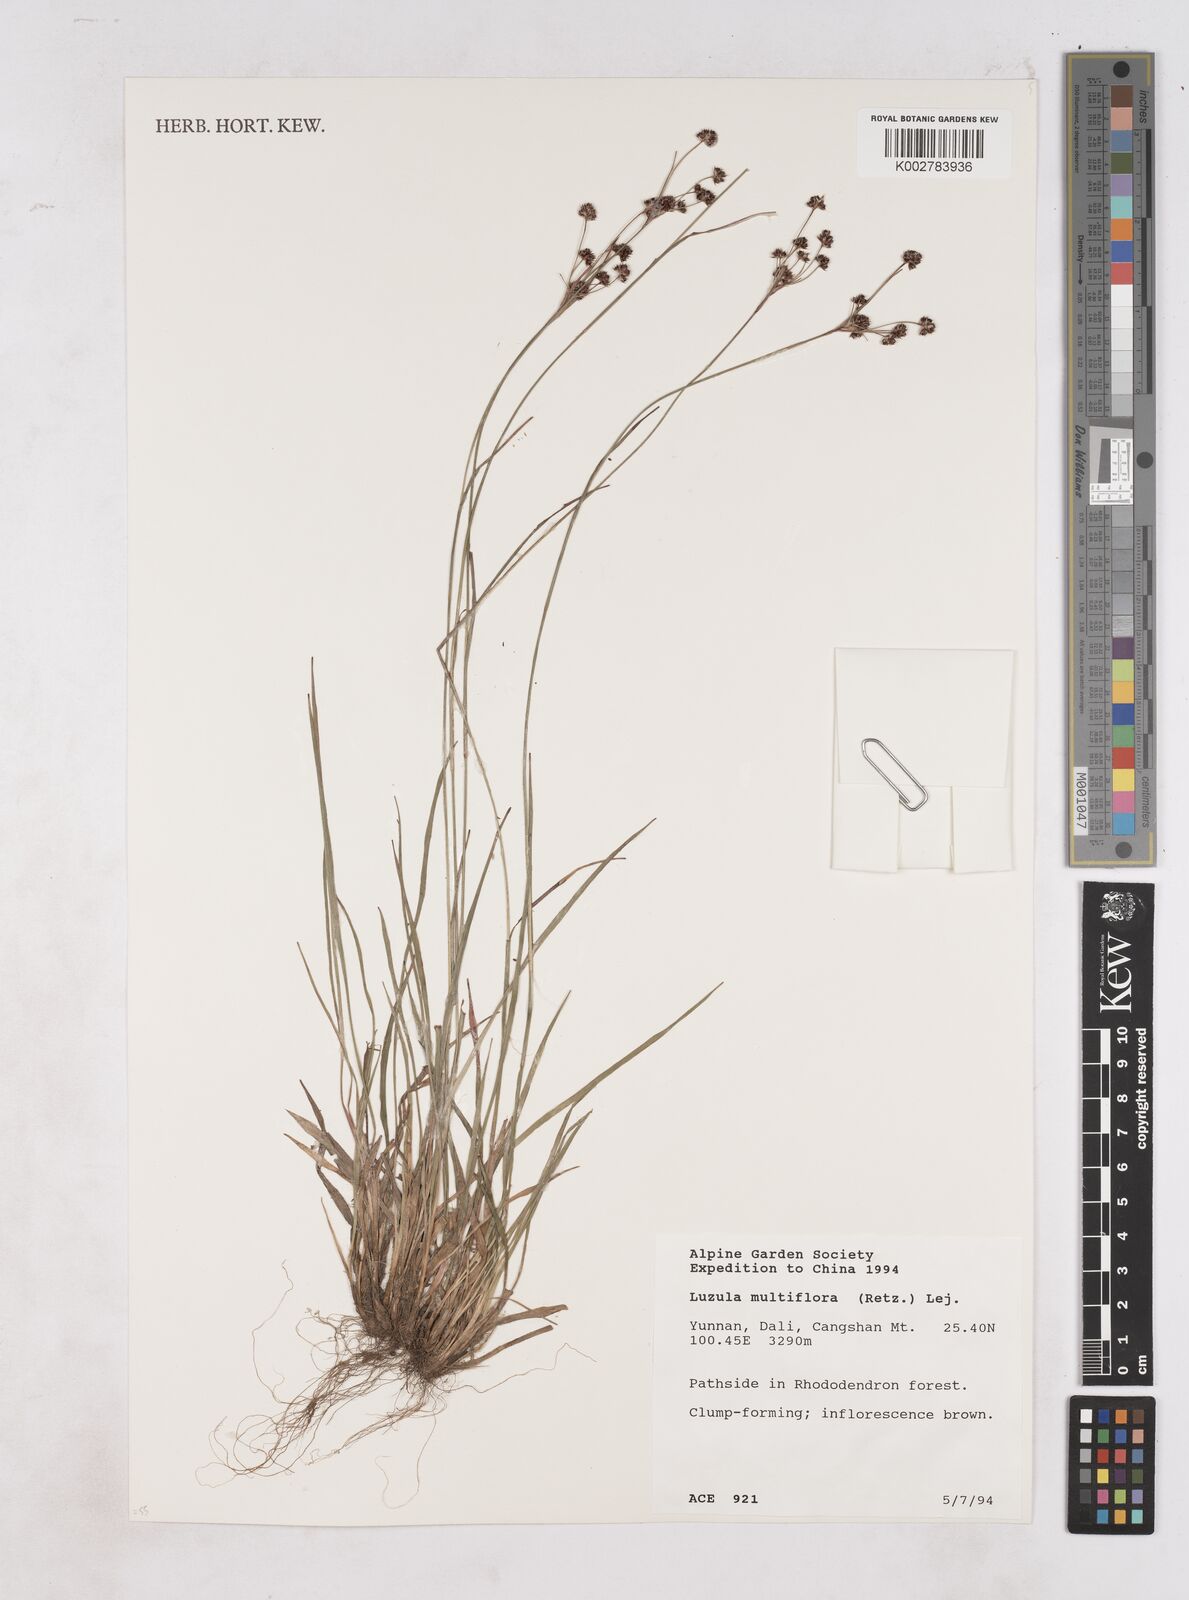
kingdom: Plantae
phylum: Tracheophyta
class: Liliopsida
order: Poales
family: Juncaceae
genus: Luzula
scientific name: Luzula campestris
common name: Field wood-rush
